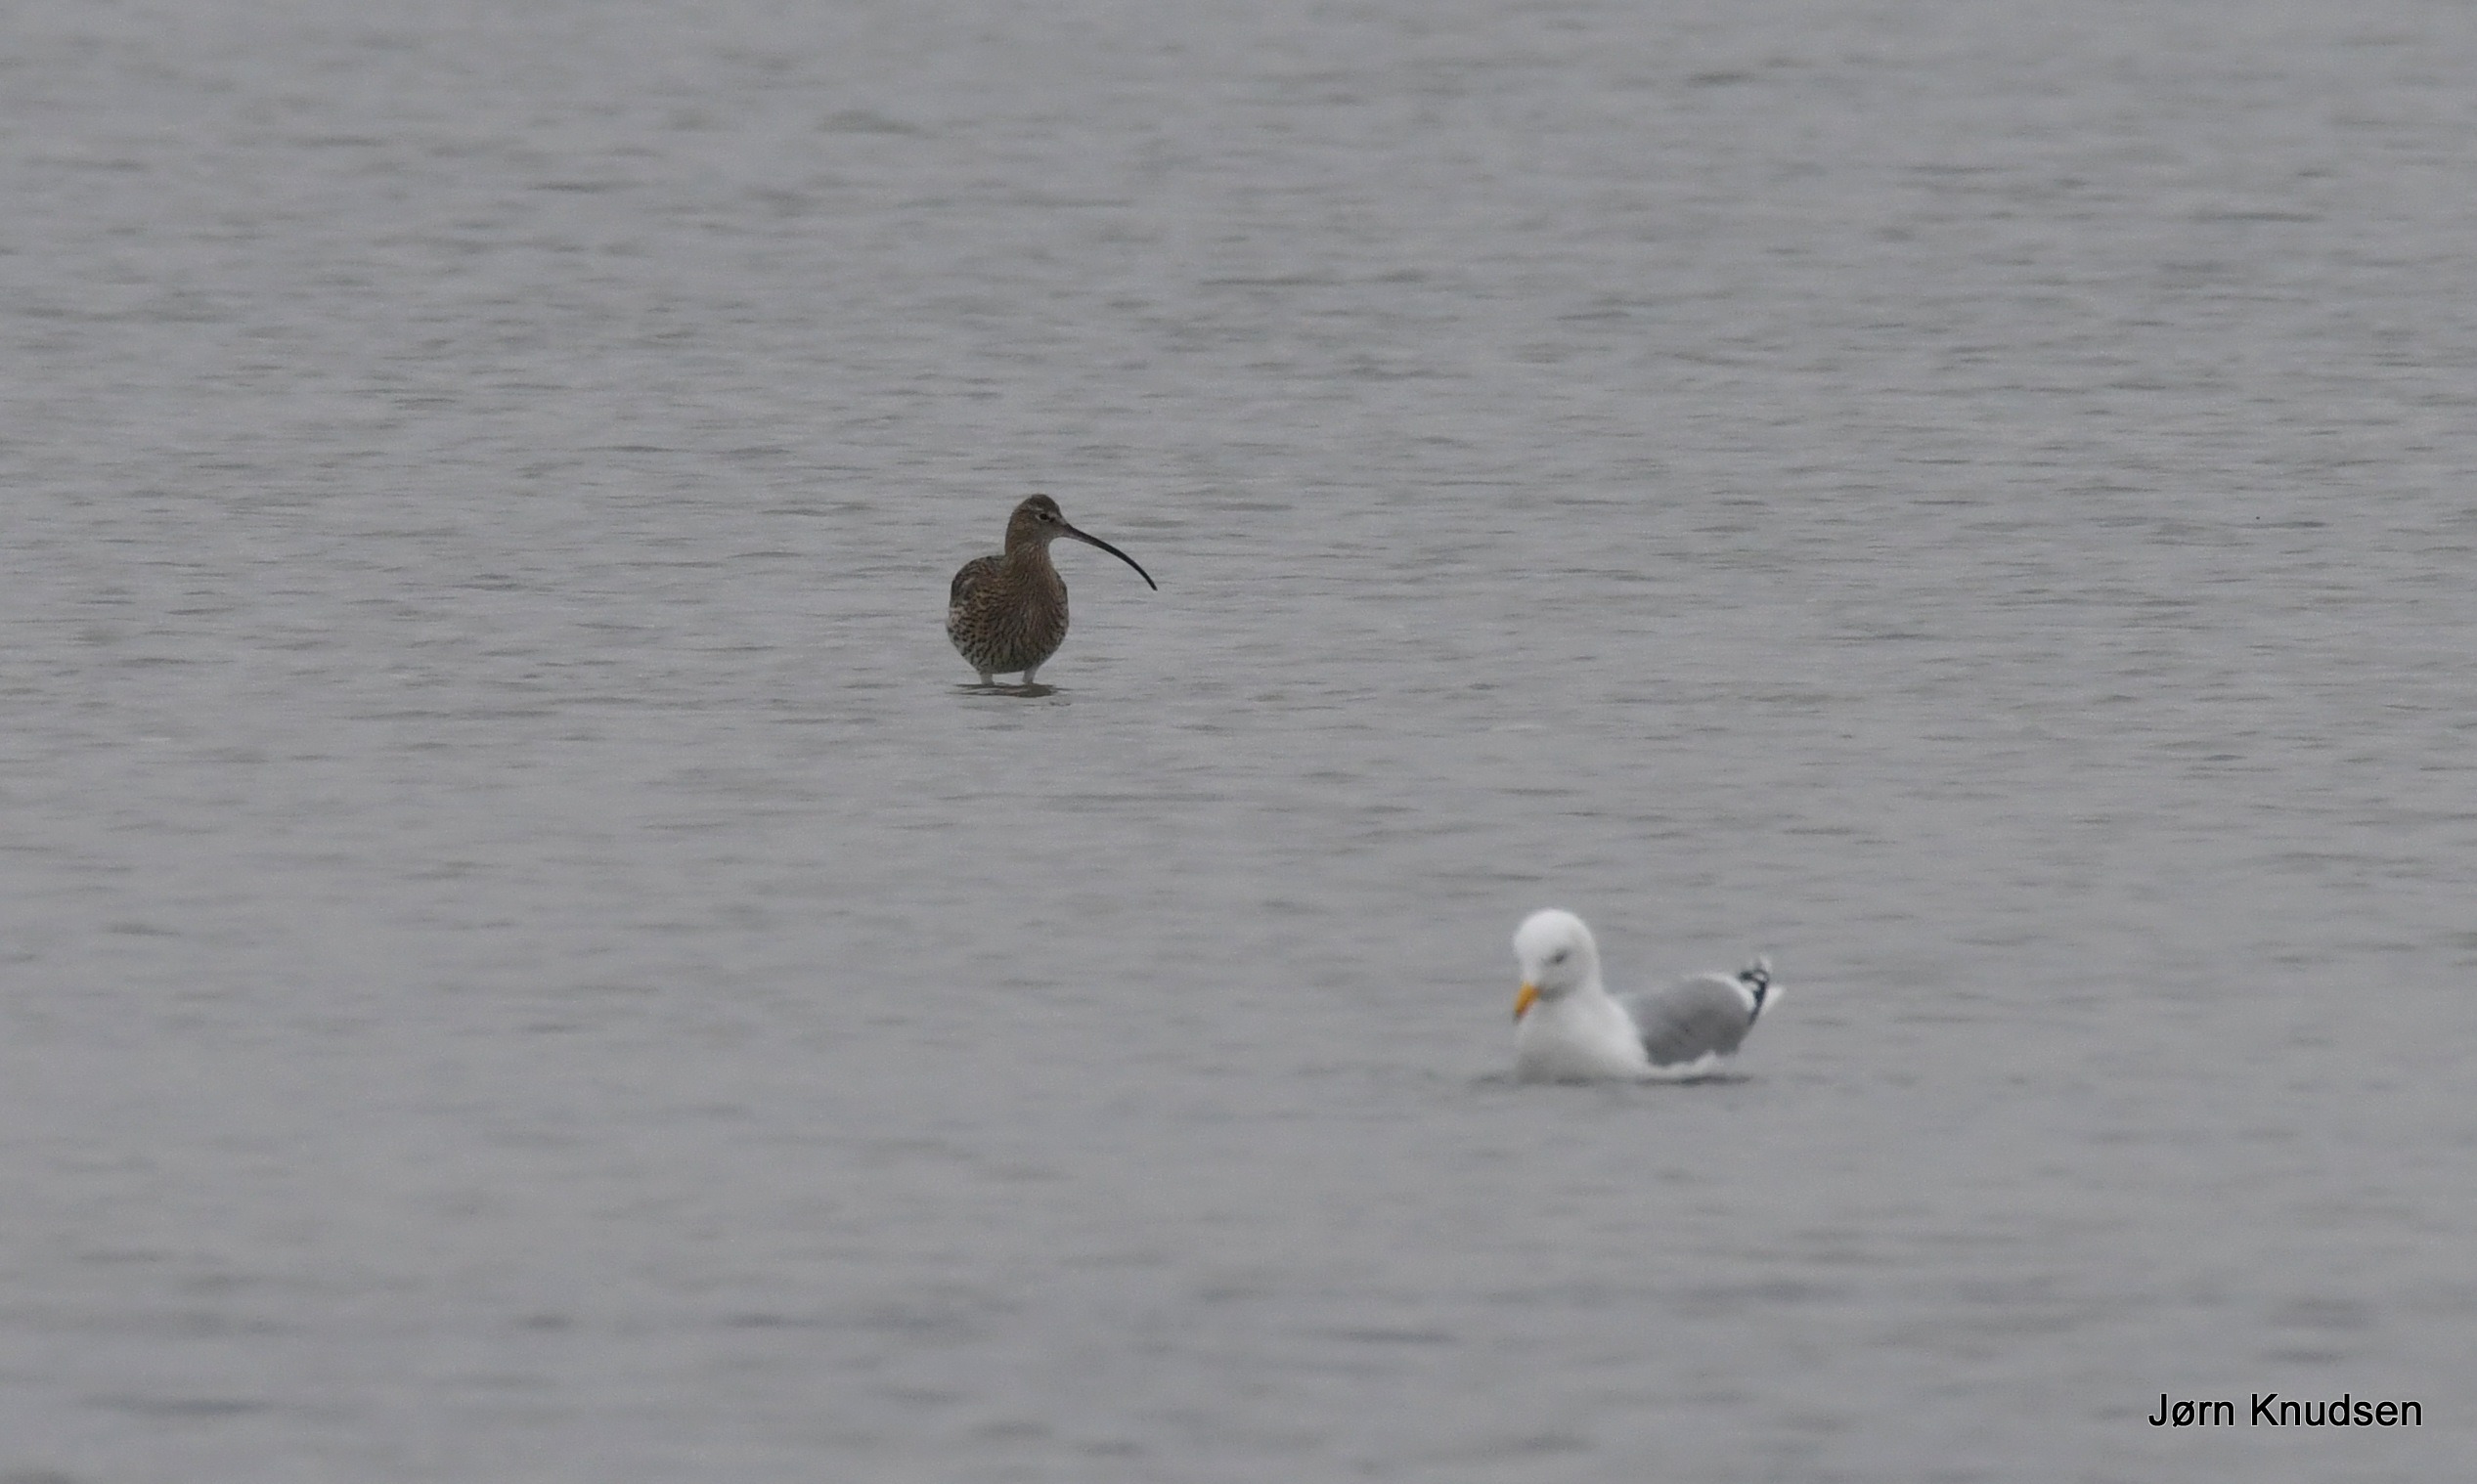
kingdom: Animalia
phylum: Chordata
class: Aves
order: Charadriiformes
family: Scolopacidae
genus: Numenius
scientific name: Numenius arquata
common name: Storspove
